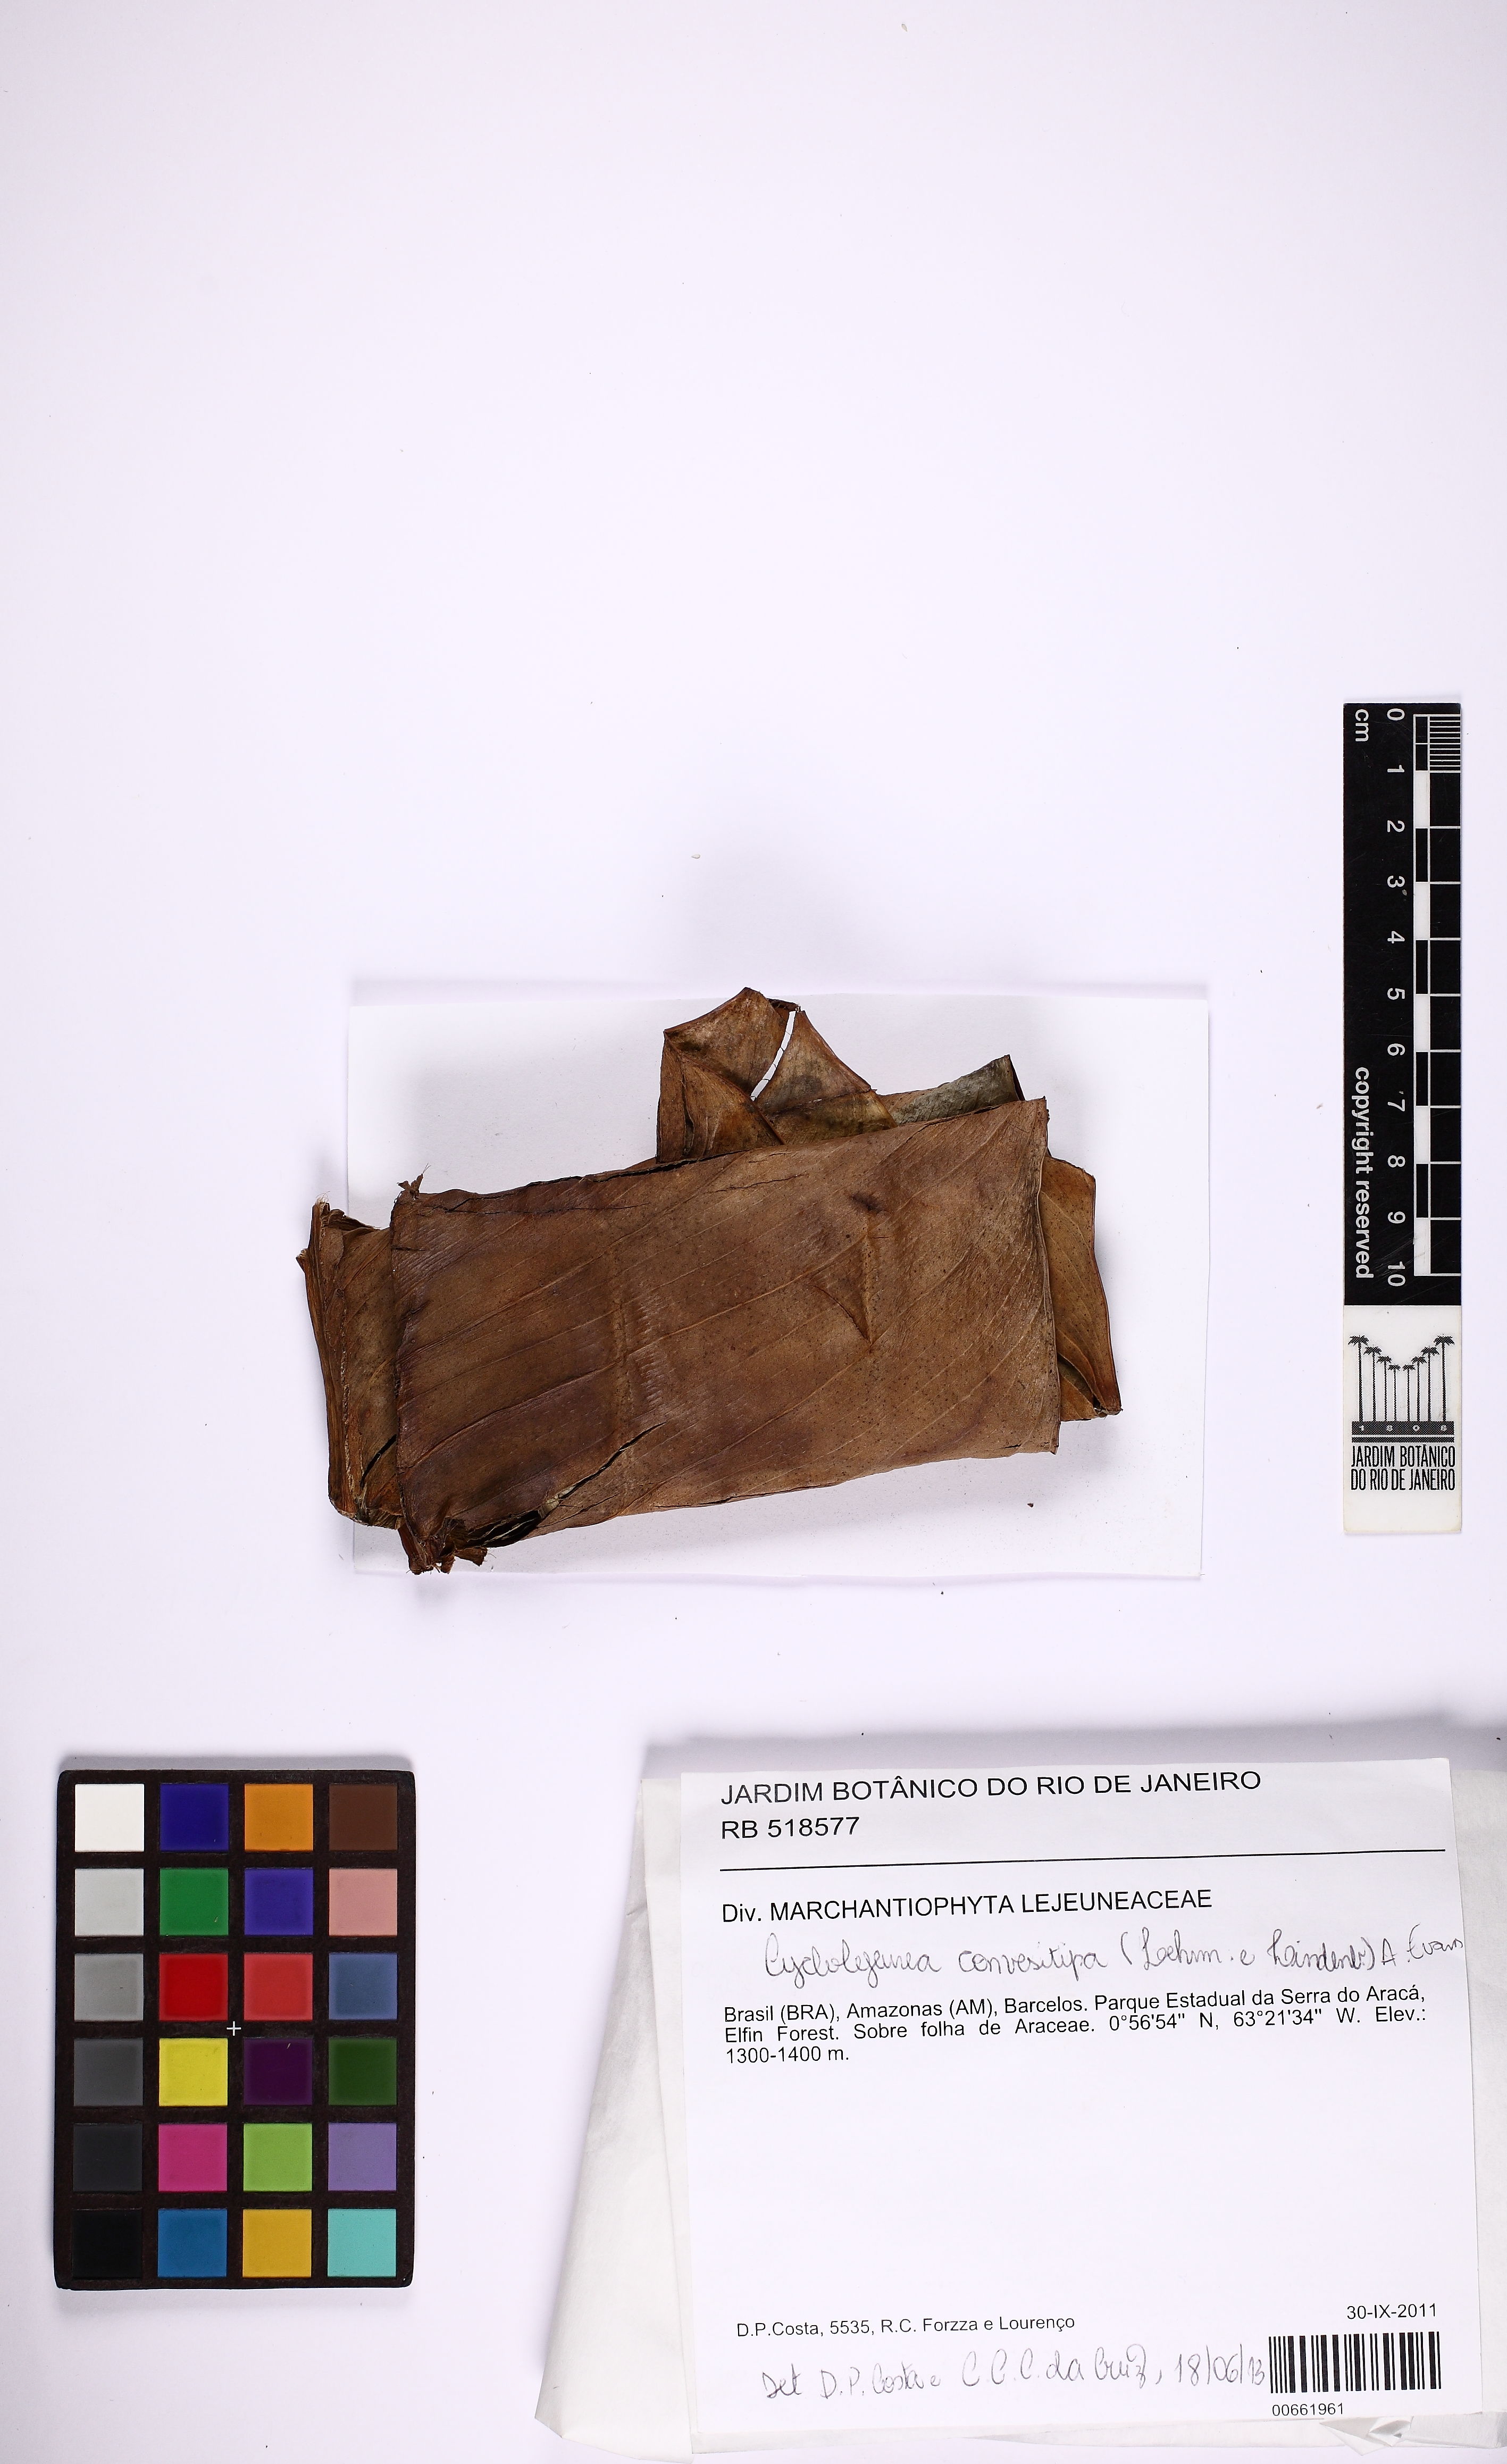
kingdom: Plantae
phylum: Marchantiophyta
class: Jungermanniopsida
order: Porellales
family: Lejeuneaceae
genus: Cyclolejeunea
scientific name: Cyclolejeunea convexistipa
